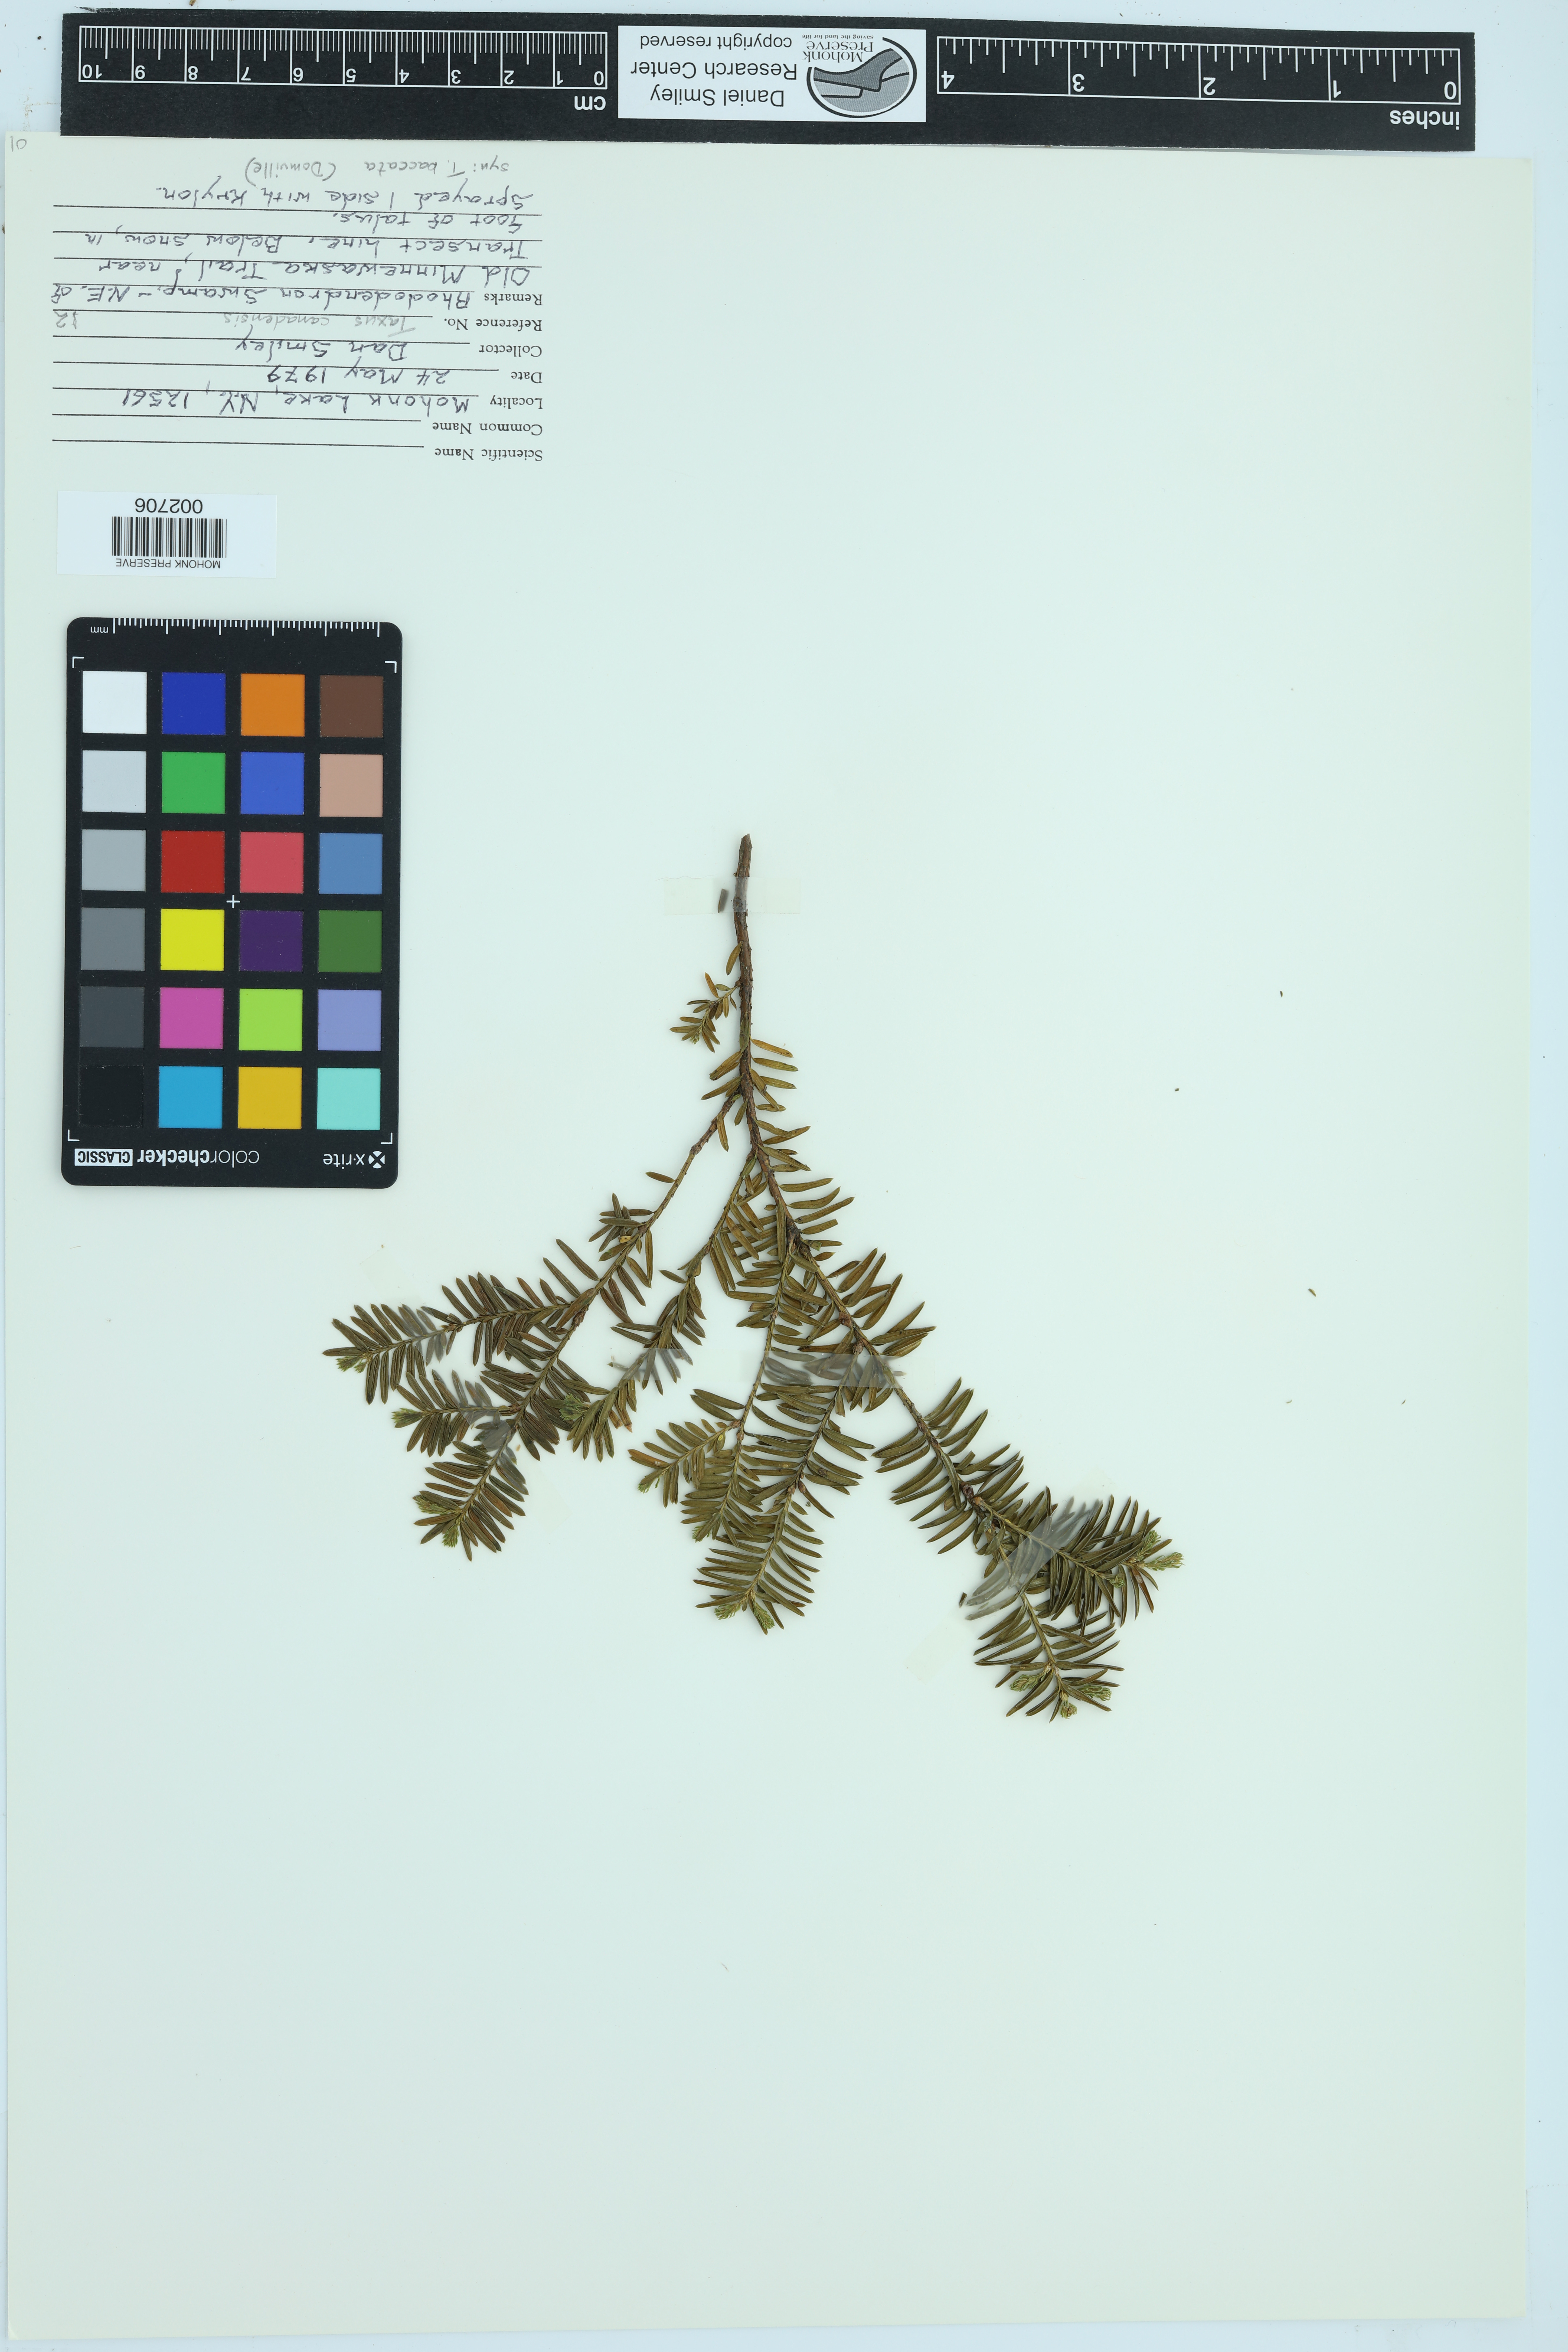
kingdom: Plantae
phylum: Tracheophyta
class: Pinopsida
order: Pinales
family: Taxaceae
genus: Taxus
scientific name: Taxus canadensis
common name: American yew
